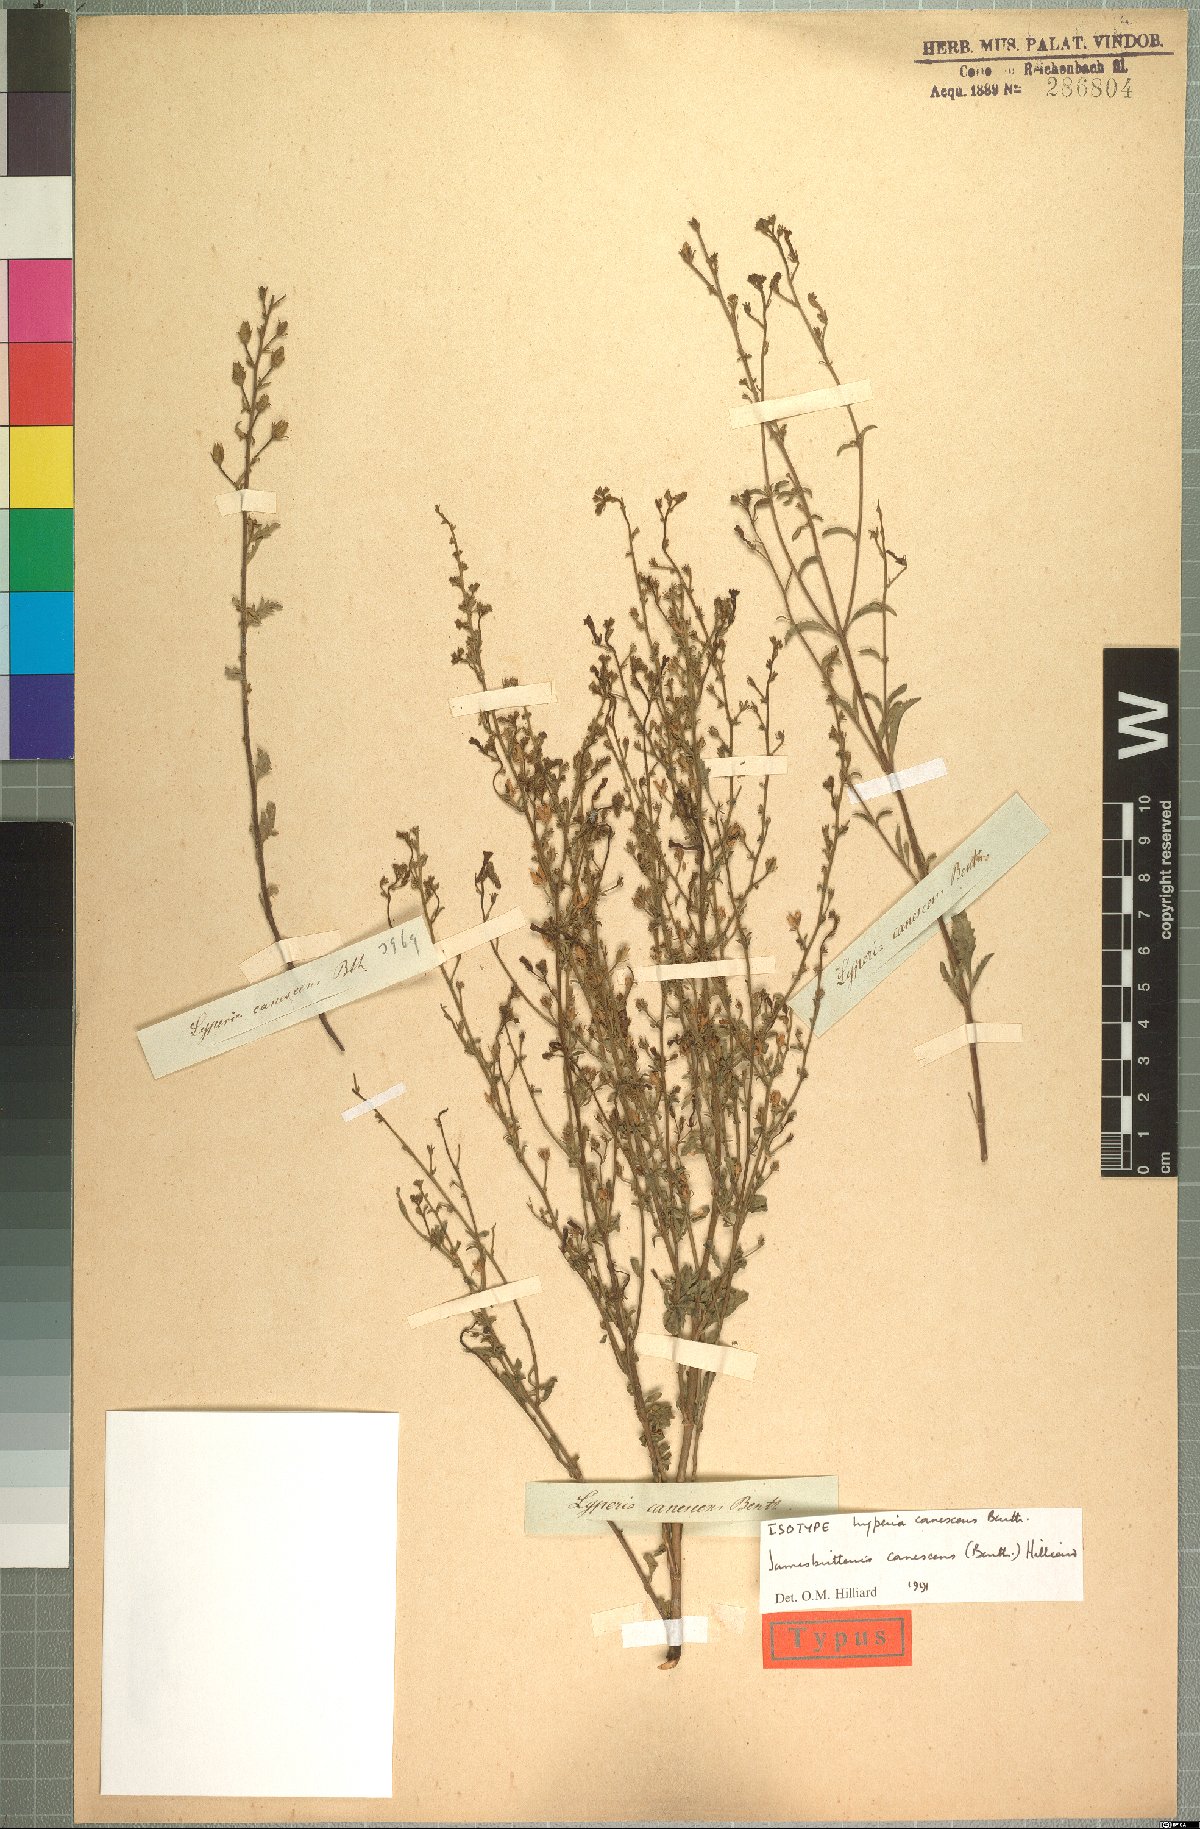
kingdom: Plantae
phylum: Tracheophyta
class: Magnoliopsida
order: Lamiales
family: Scrophulariaceae
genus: Jamesbrittenia
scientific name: Jamesbrittenia canescens
